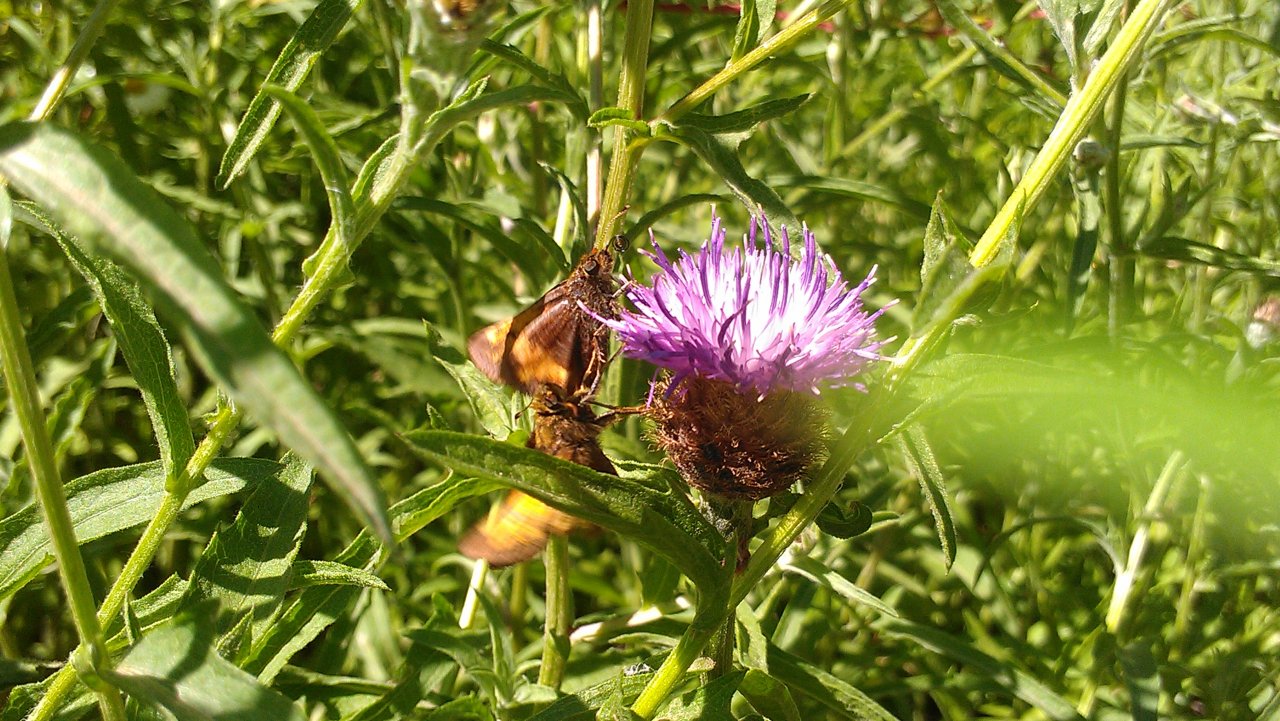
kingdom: Animalia
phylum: Arthropoda
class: Insecta
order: Lepidoptera
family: Hesperiidae
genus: Lon
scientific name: Lon hobomok
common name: Hobomok Skipper
